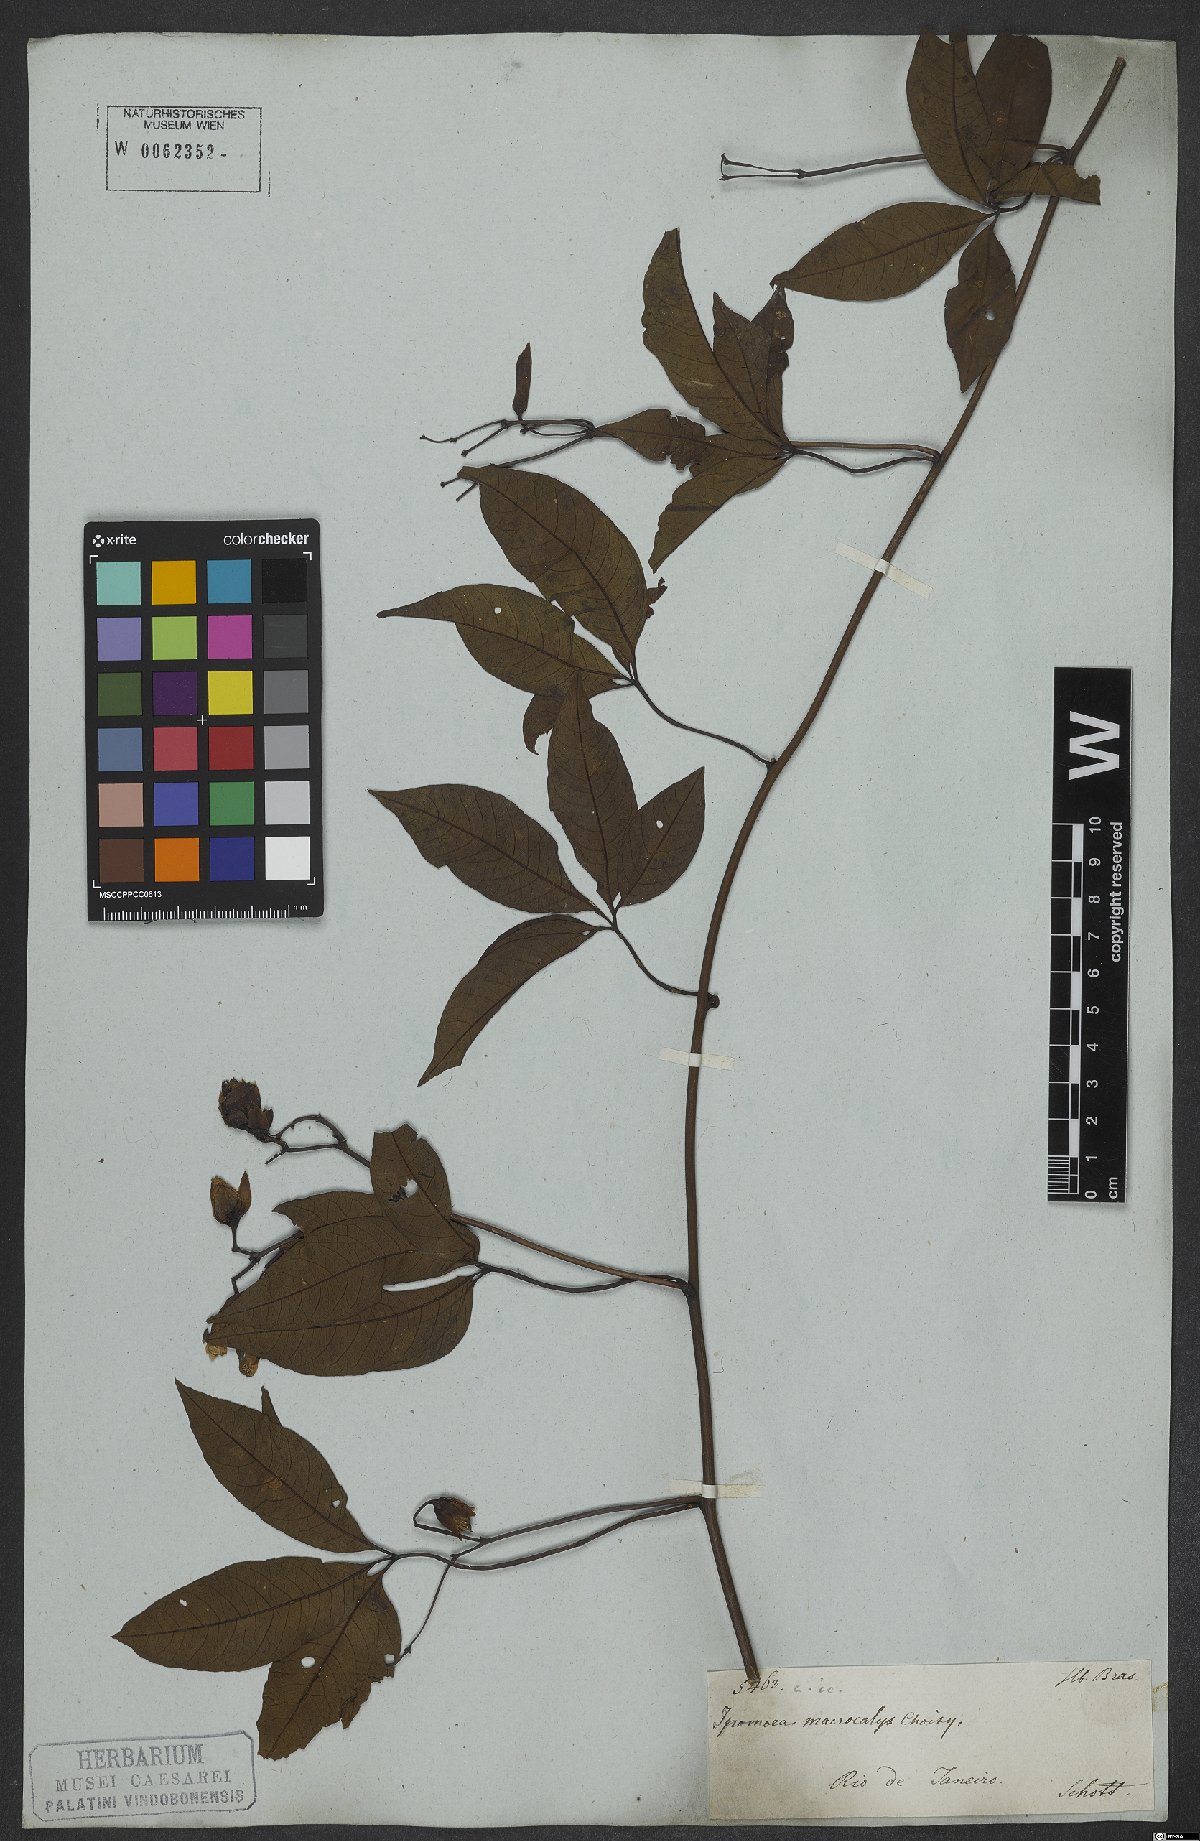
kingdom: Plantae
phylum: Tracheophyta
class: Magnoliopsida
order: Solanales
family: Convolvulaceae
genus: Distimake
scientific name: Distimake macrocalyx
